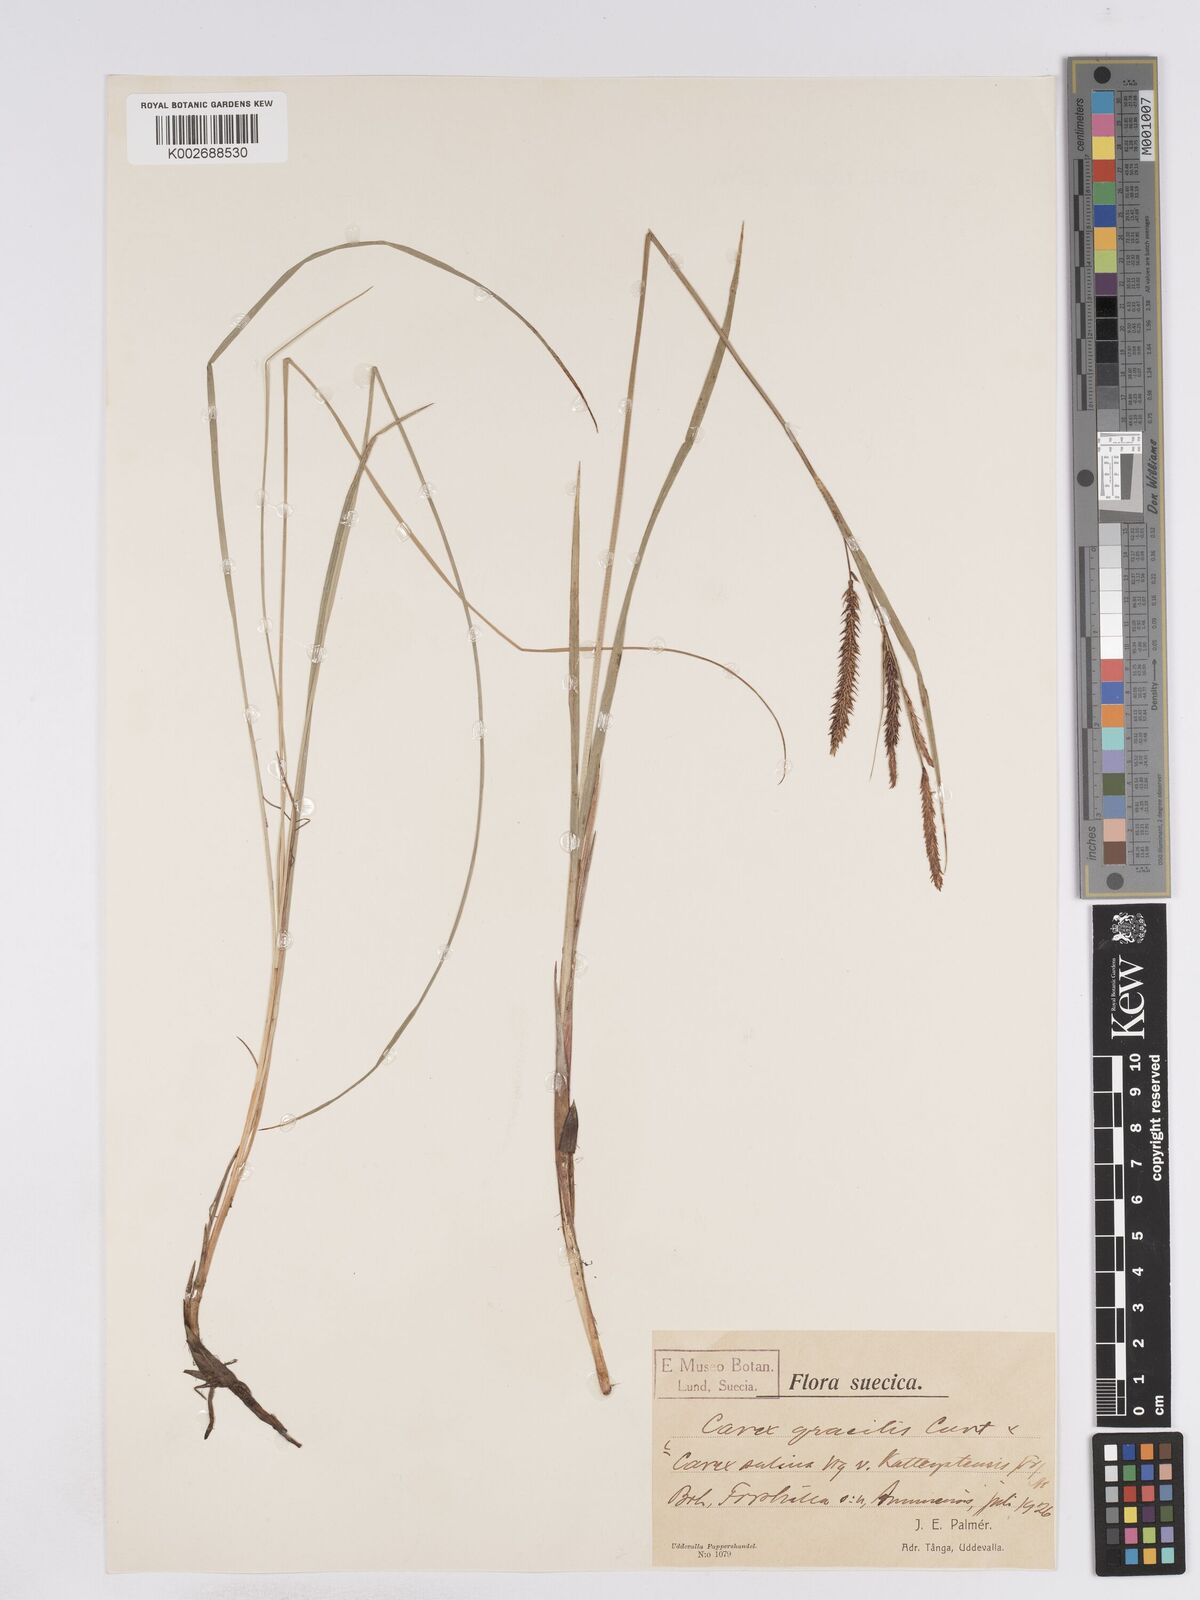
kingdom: Plantae
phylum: Tracheophyta
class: Liliopsida
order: Poales
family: Cyperaceae
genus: Carex
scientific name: Carex recta
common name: Estuarine sedge
